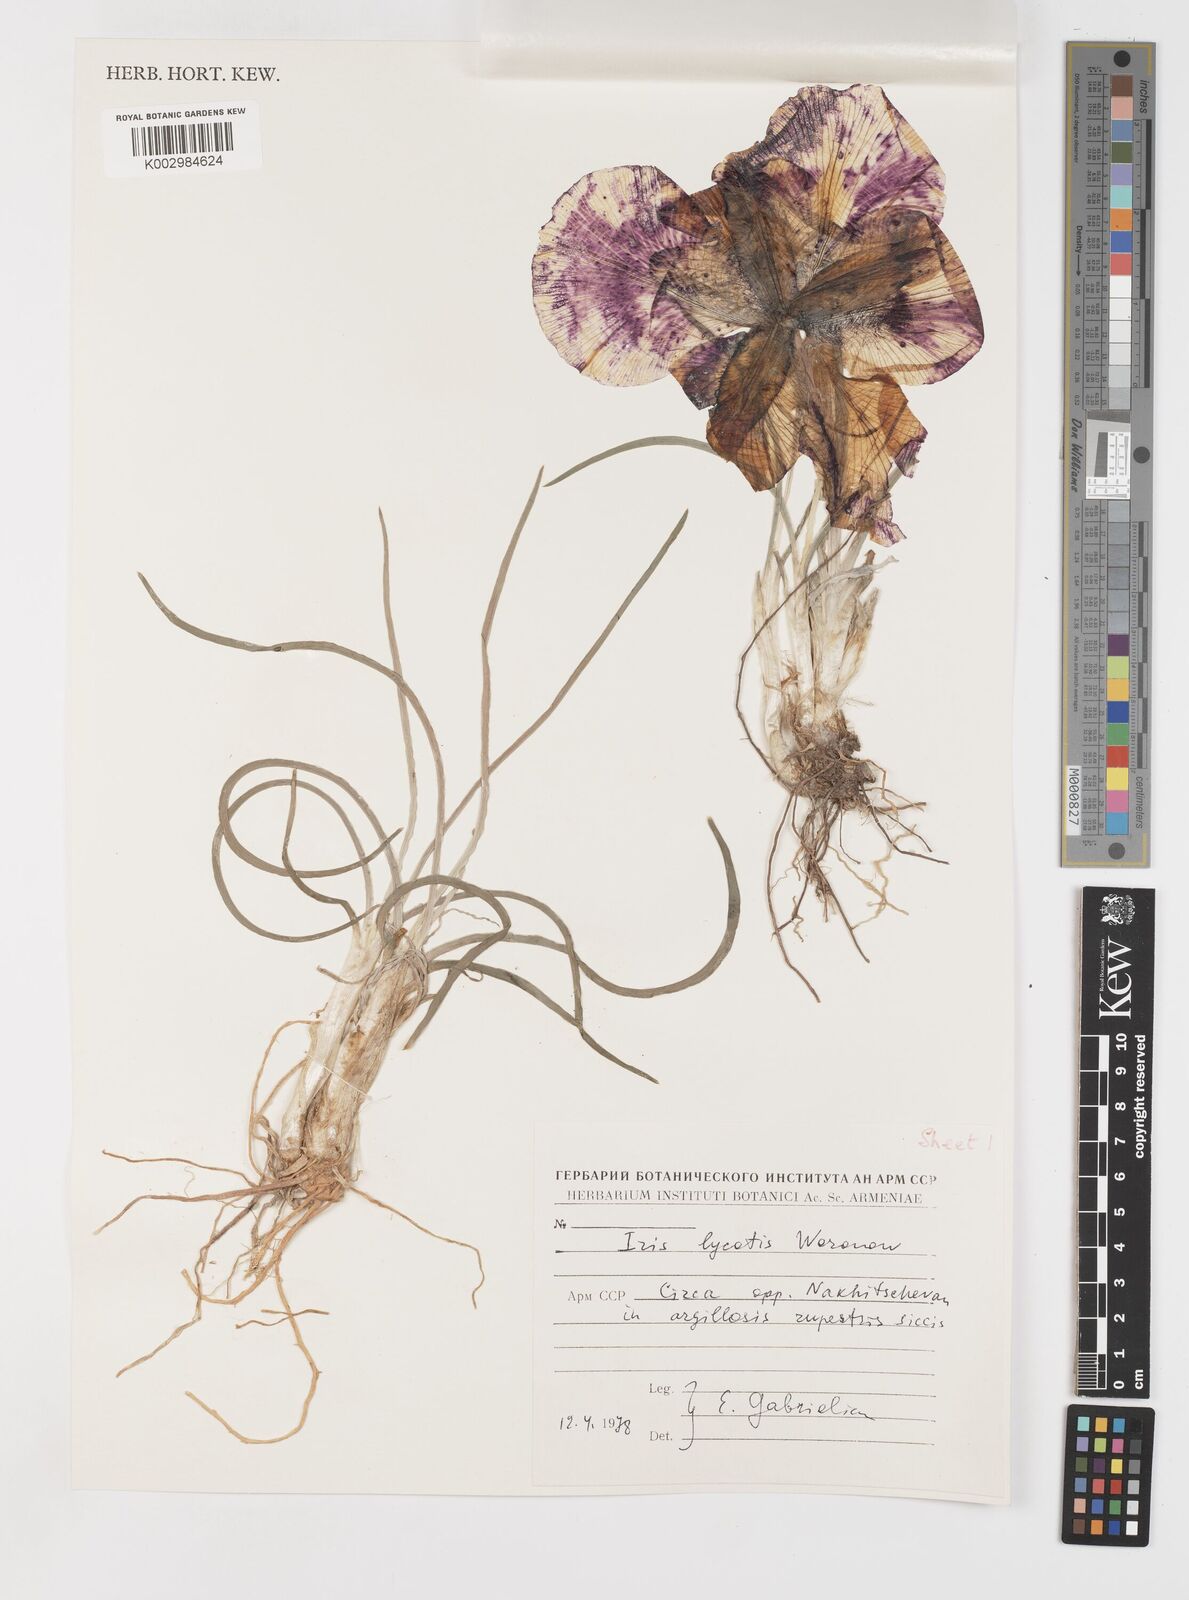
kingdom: Plantae
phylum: Tracheophyta
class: Liliopsida
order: Asparagales
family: Iridaceae
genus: Iris
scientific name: Iris lycotis
